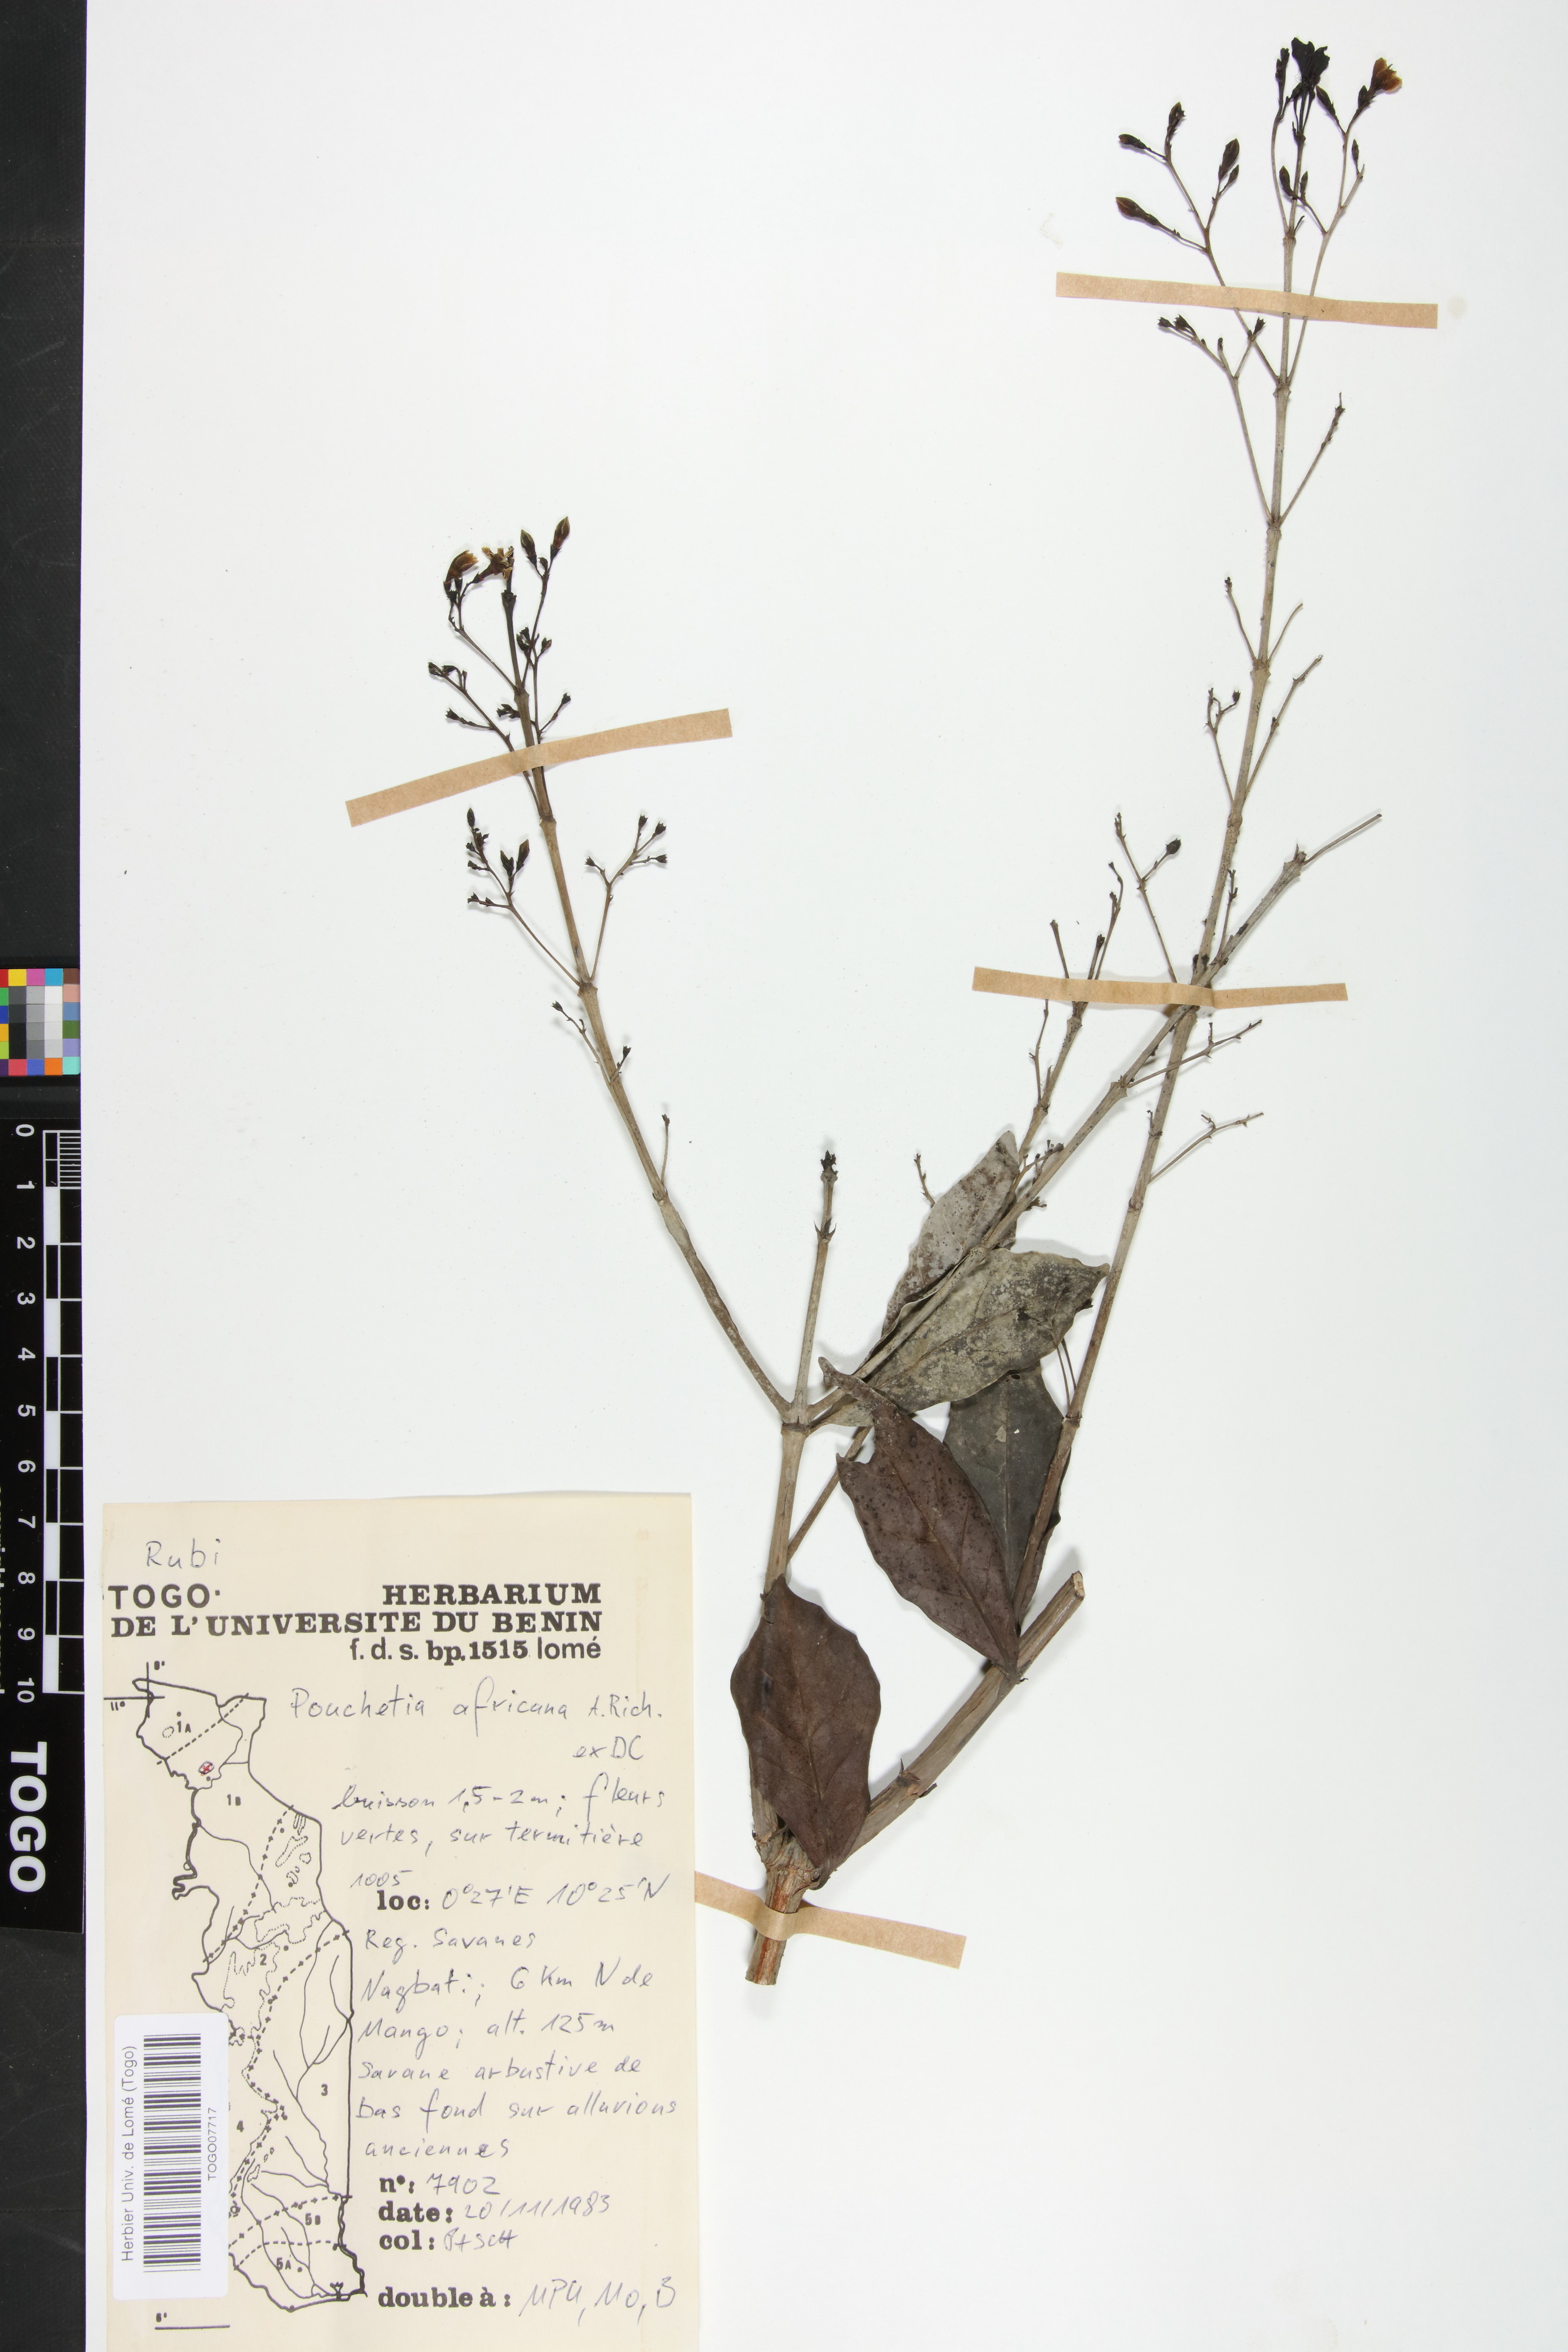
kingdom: Plantae
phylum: Tracheophyta
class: Magnoliopsida
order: Gentianales
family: Rubiaceae
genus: Pouchetia
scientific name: Pouchetia africana
